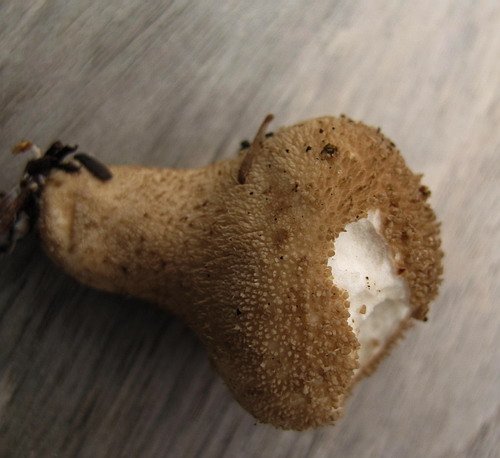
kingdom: Fungi
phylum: Basidiomycota
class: Agaricomycetes
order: Agaricales
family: Lycoperdaceae
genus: Lycoperdon
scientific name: Lycoperdon nigrescens
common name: sortagtig støvbold
